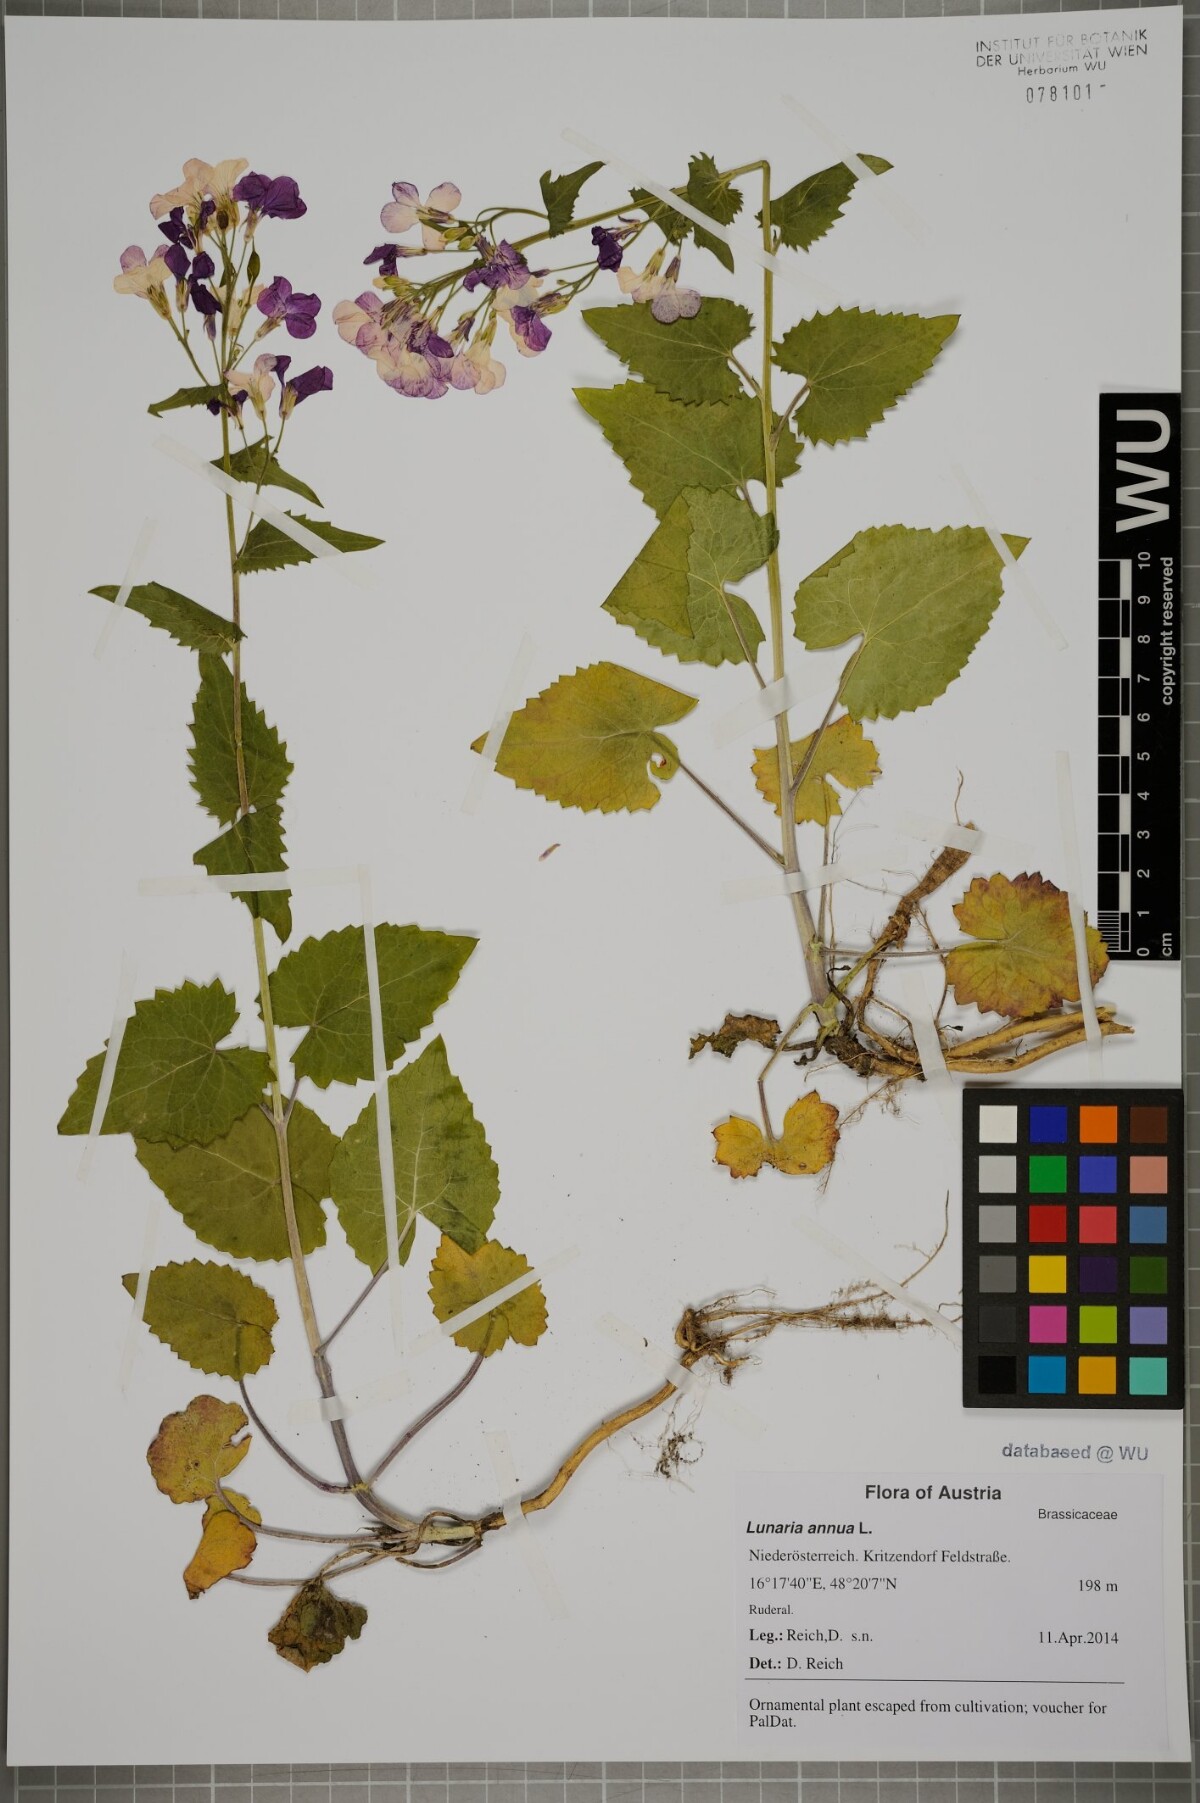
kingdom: Plantae
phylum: Tracheophyta
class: Magnoliopsida
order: Brassicales
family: Brassicaceae
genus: Lunaria
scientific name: Lunaria annua
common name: Honesty
